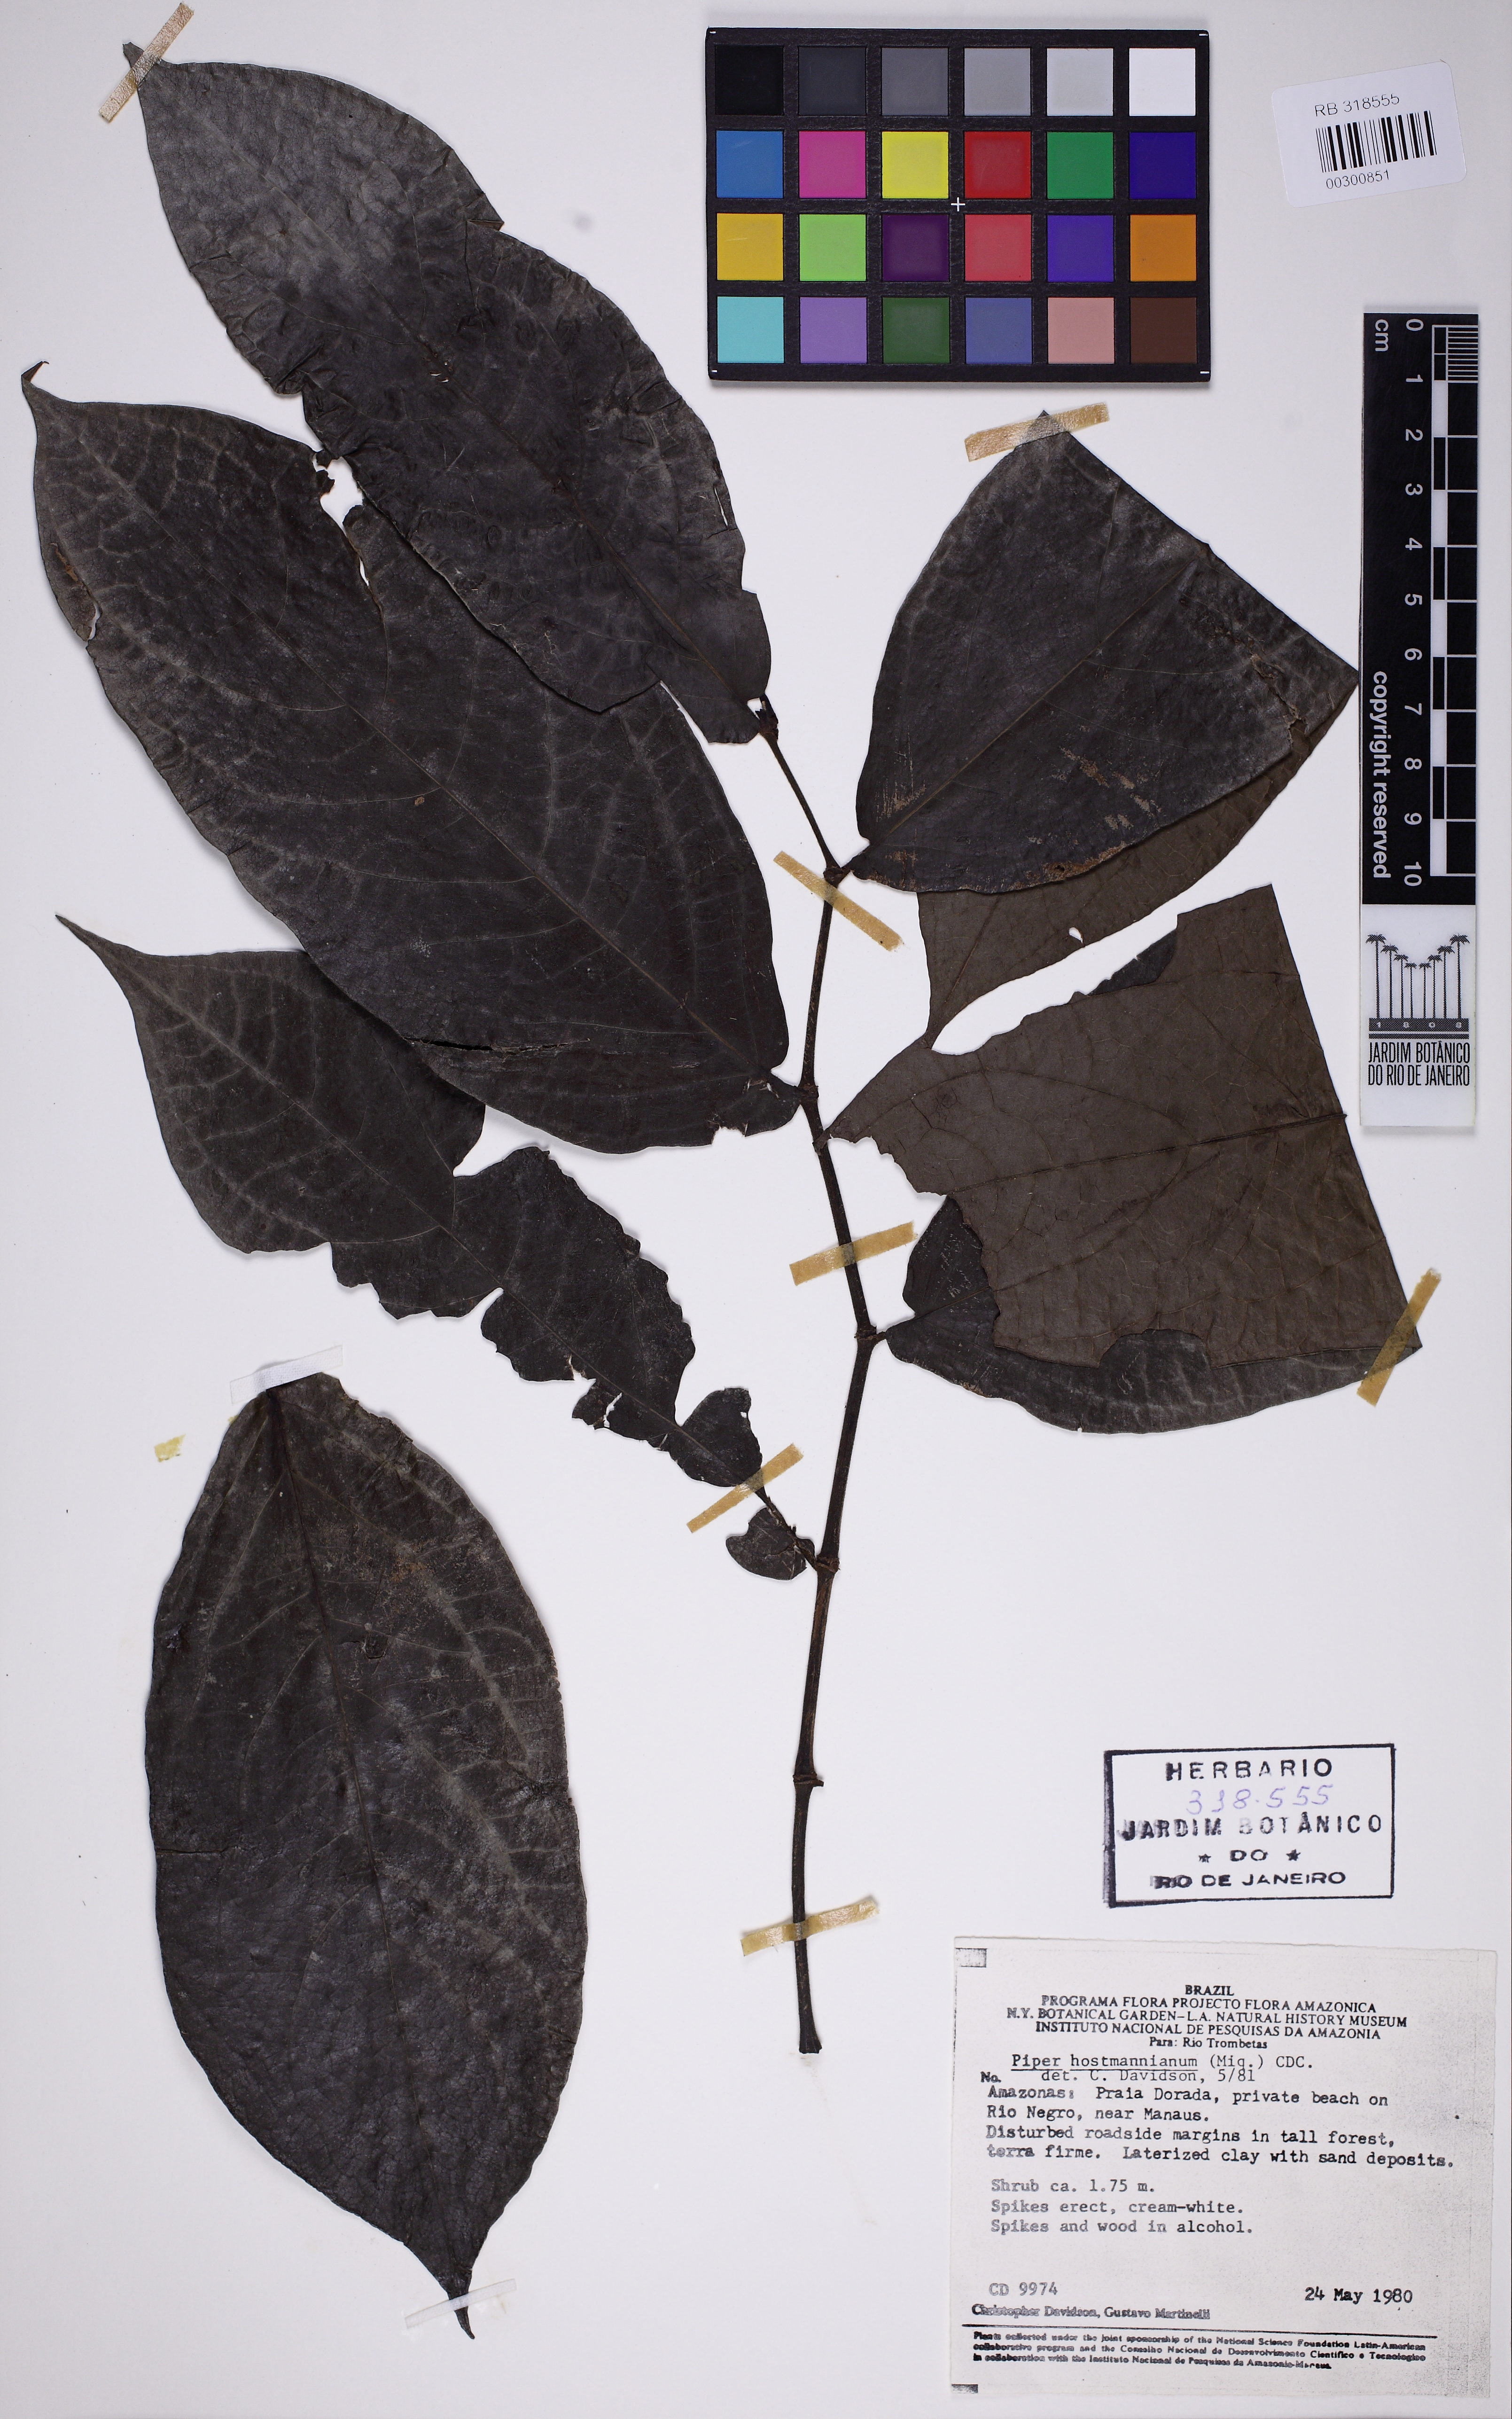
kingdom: Plantae
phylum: Tracheophyta
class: Magnoliopsida
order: Piperales
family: Piperaceae
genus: Piper
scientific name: Piper hostmannianum
